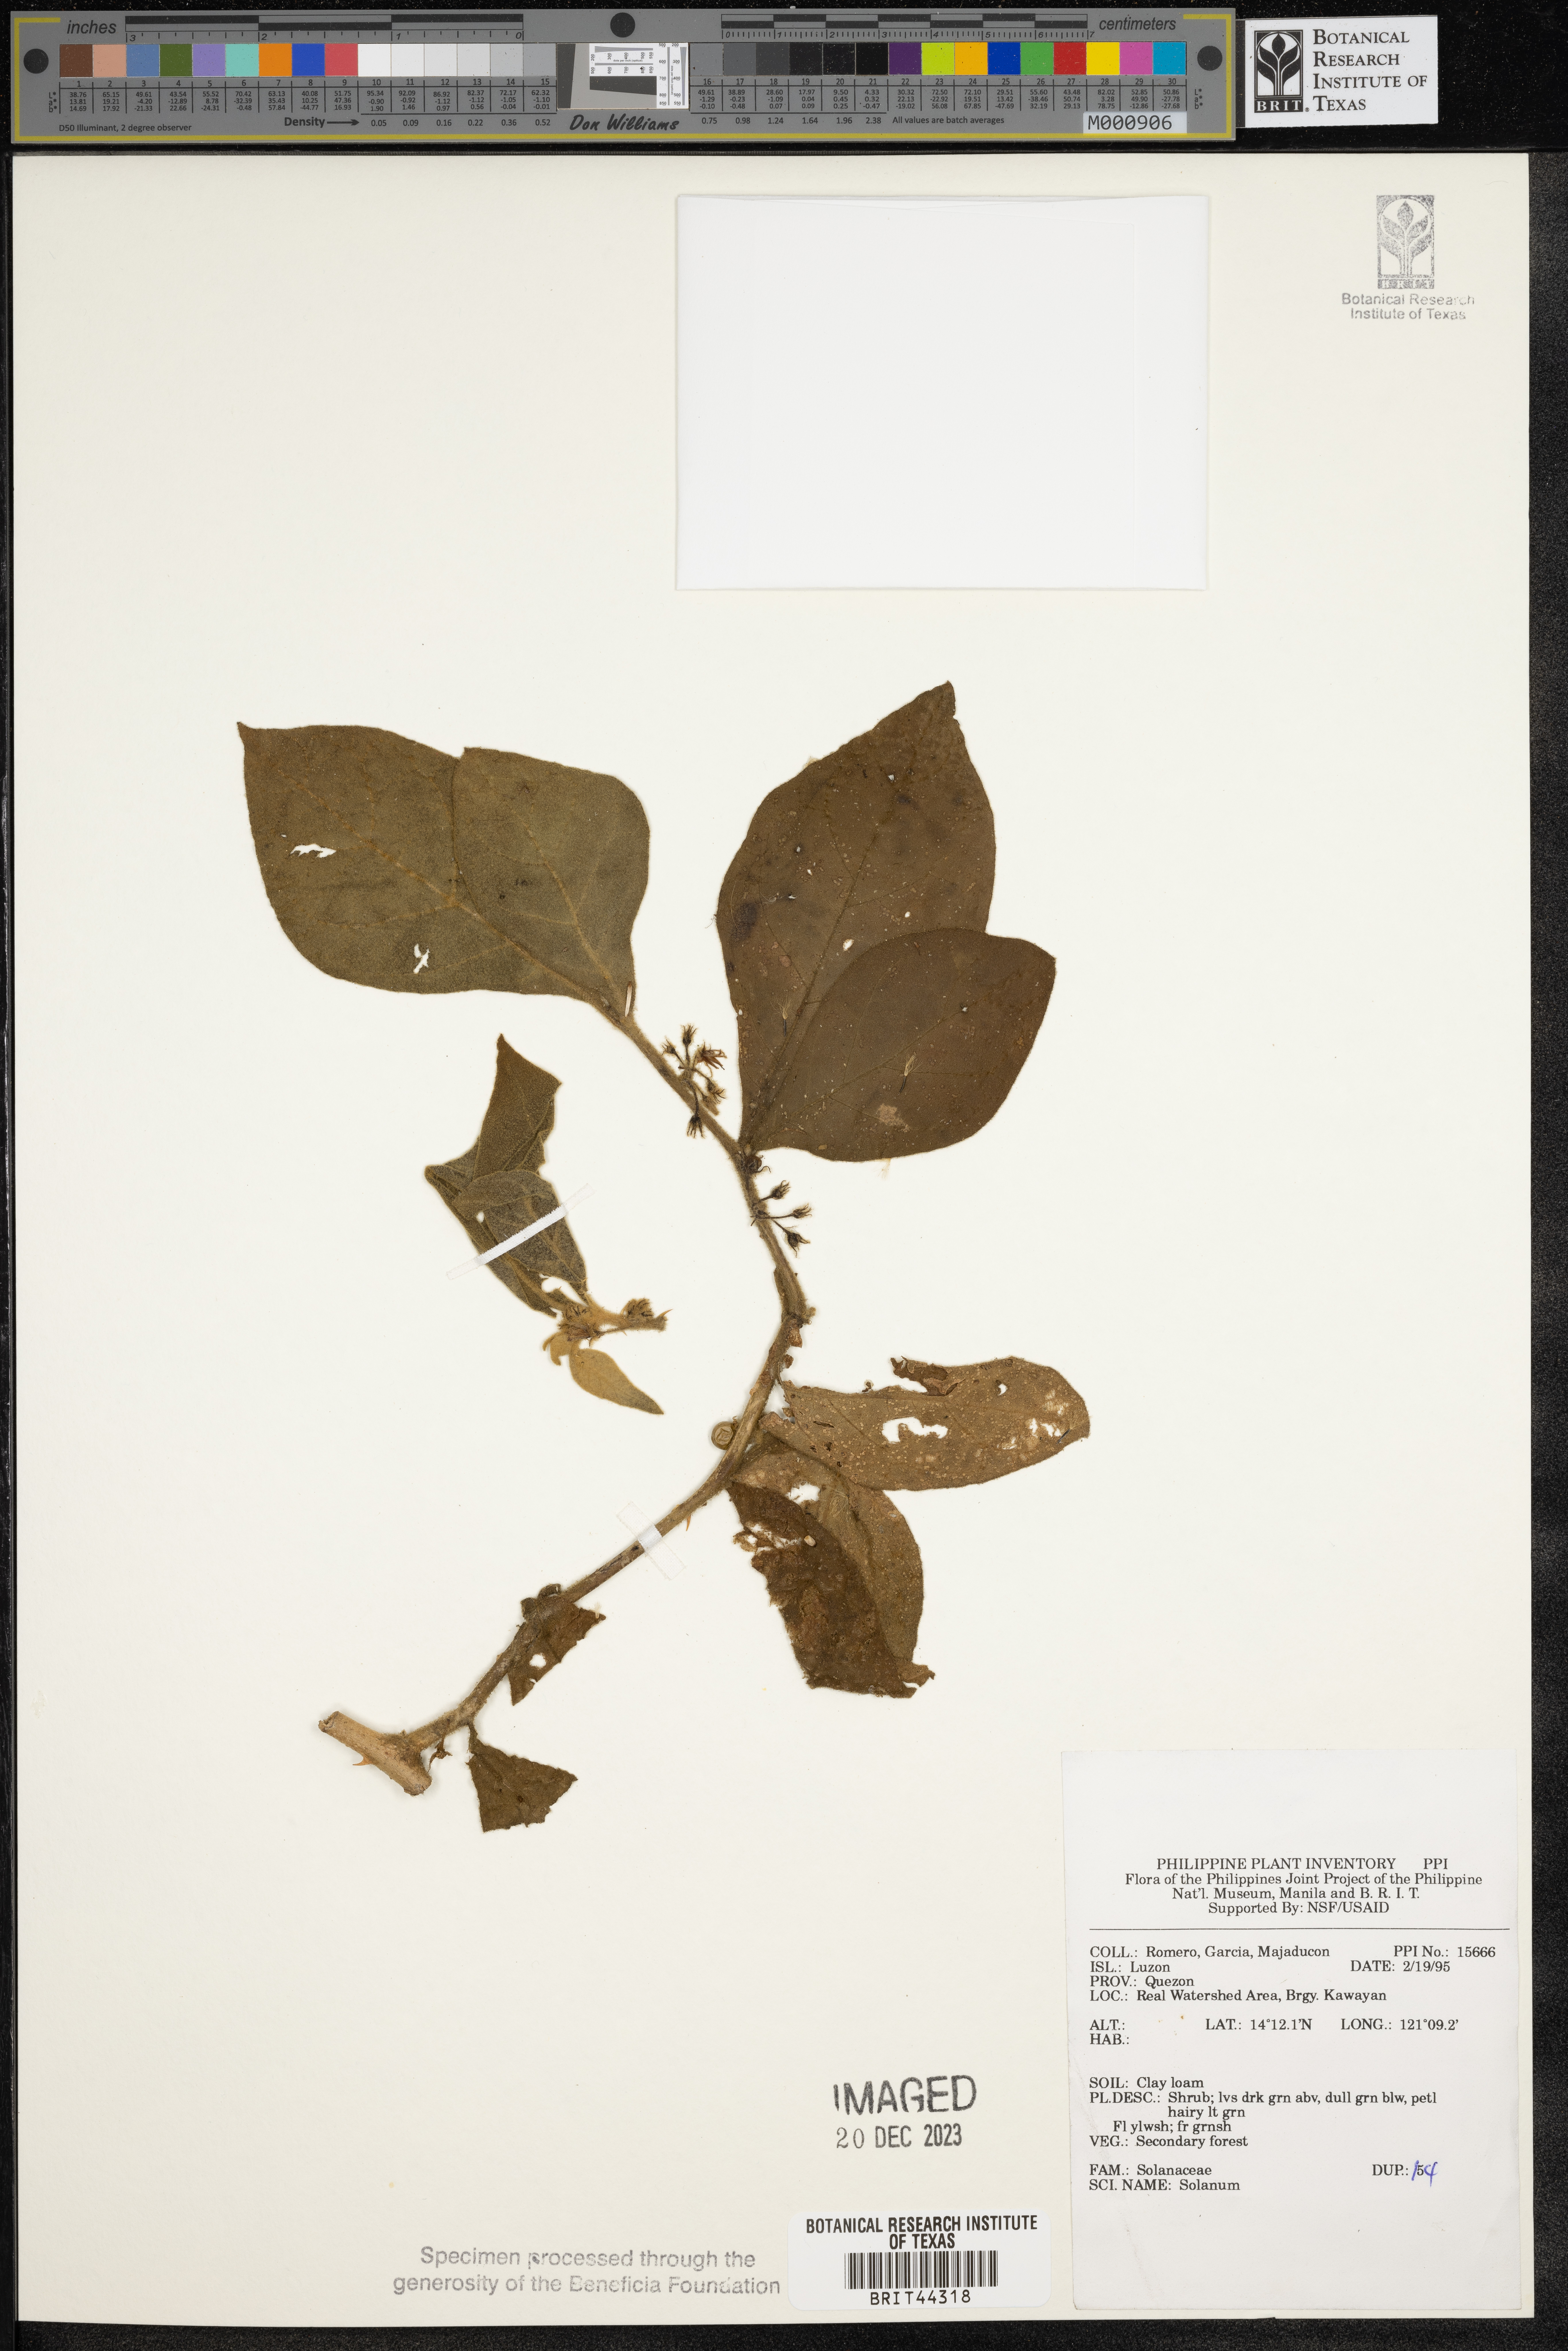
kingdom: Plantae
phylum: Tracheophyta
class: Magnoliopsida
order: Solanales
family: Solanaceae
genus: Solanum
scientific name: Solanum
